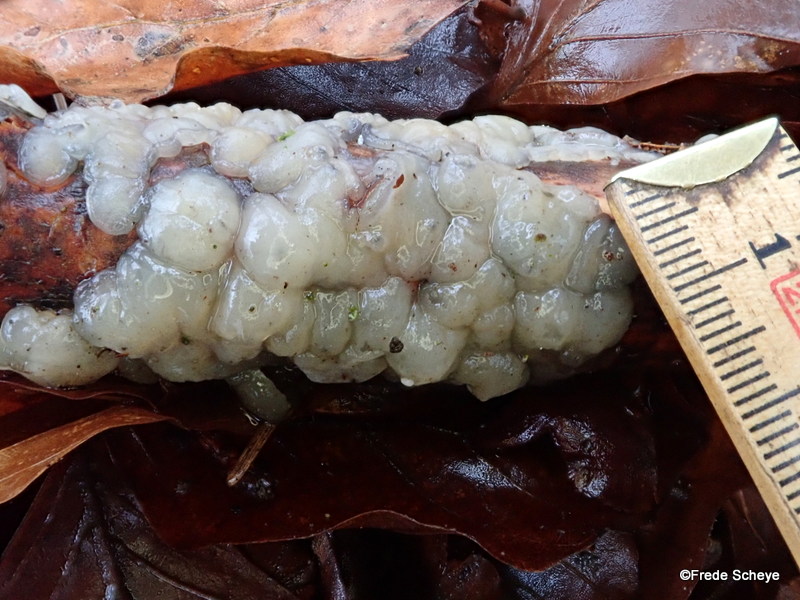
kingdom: Fungi
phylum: Basidiomycota
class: Agaricomycetes
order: Auriculariales
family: Auriculariaceae
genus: Exidia
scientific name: Exidia thuretiana
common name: hvidlig bævretop
